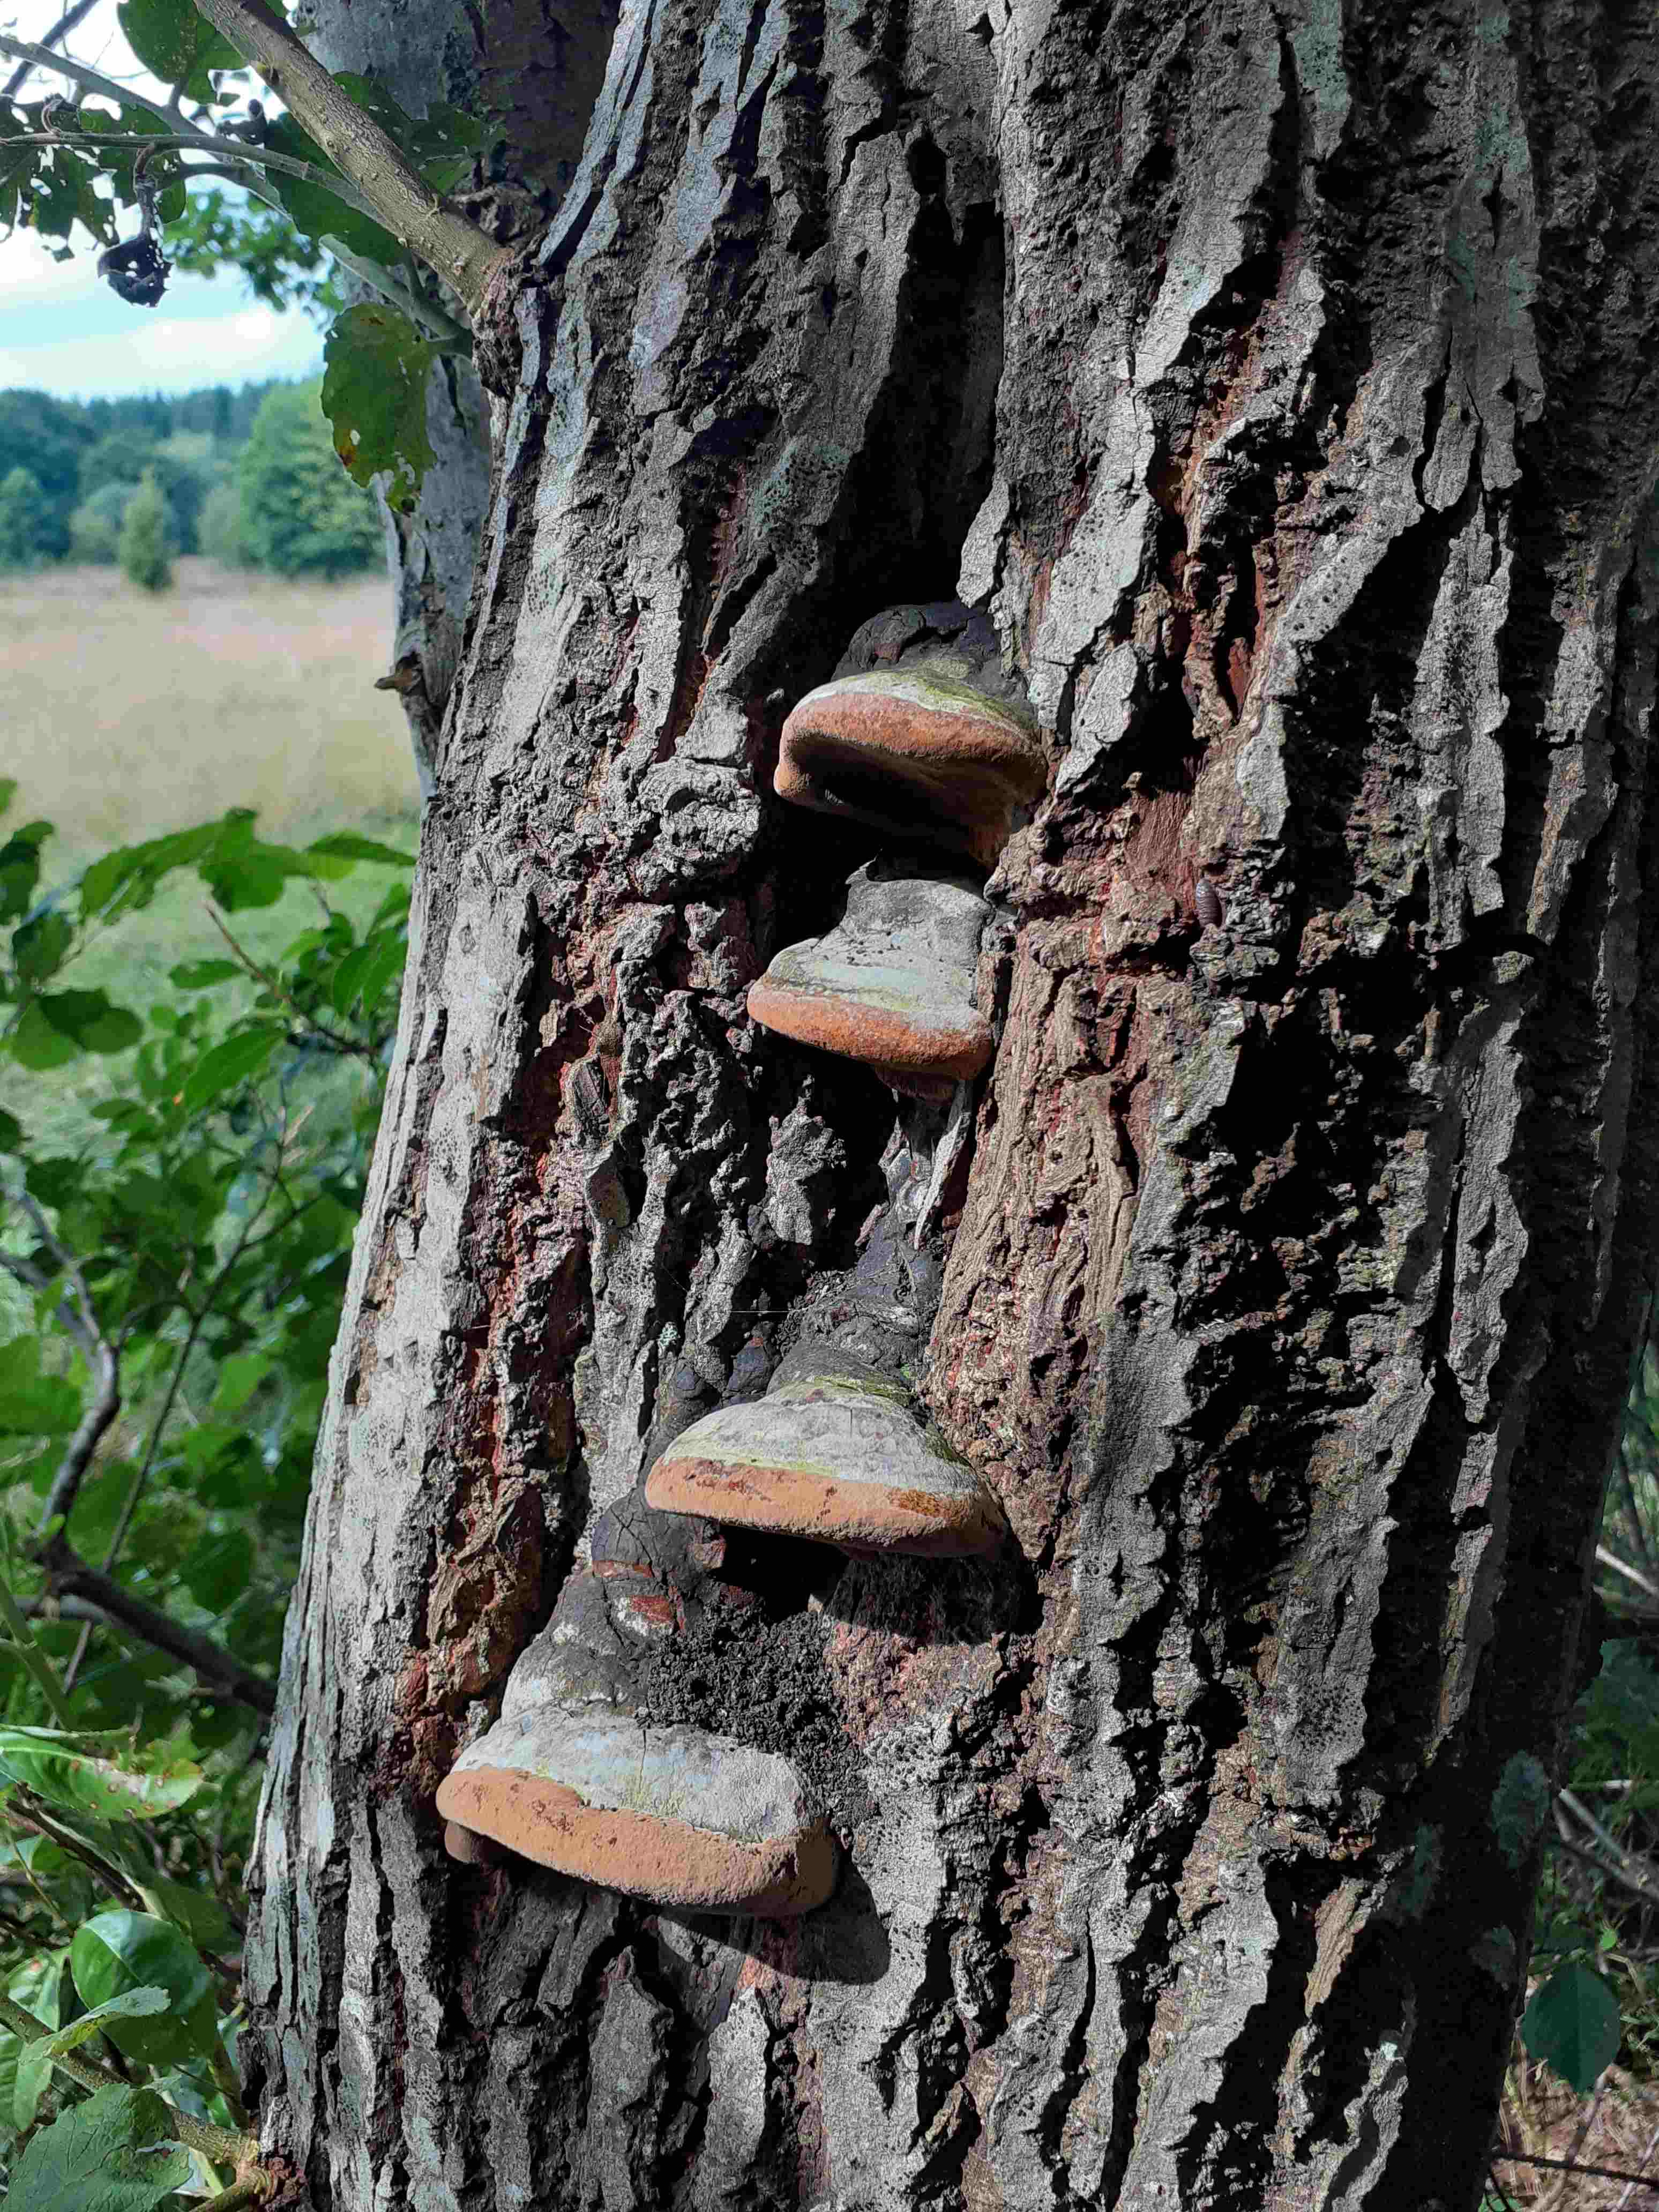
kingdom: Fungi
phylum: Basidiomycota
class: Agaricomycetes
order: Hymenochaetales
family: Hymenochaetaceae
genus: Phellinus
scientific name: Phellinus igniarius
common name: almindelig ildporesvamp
